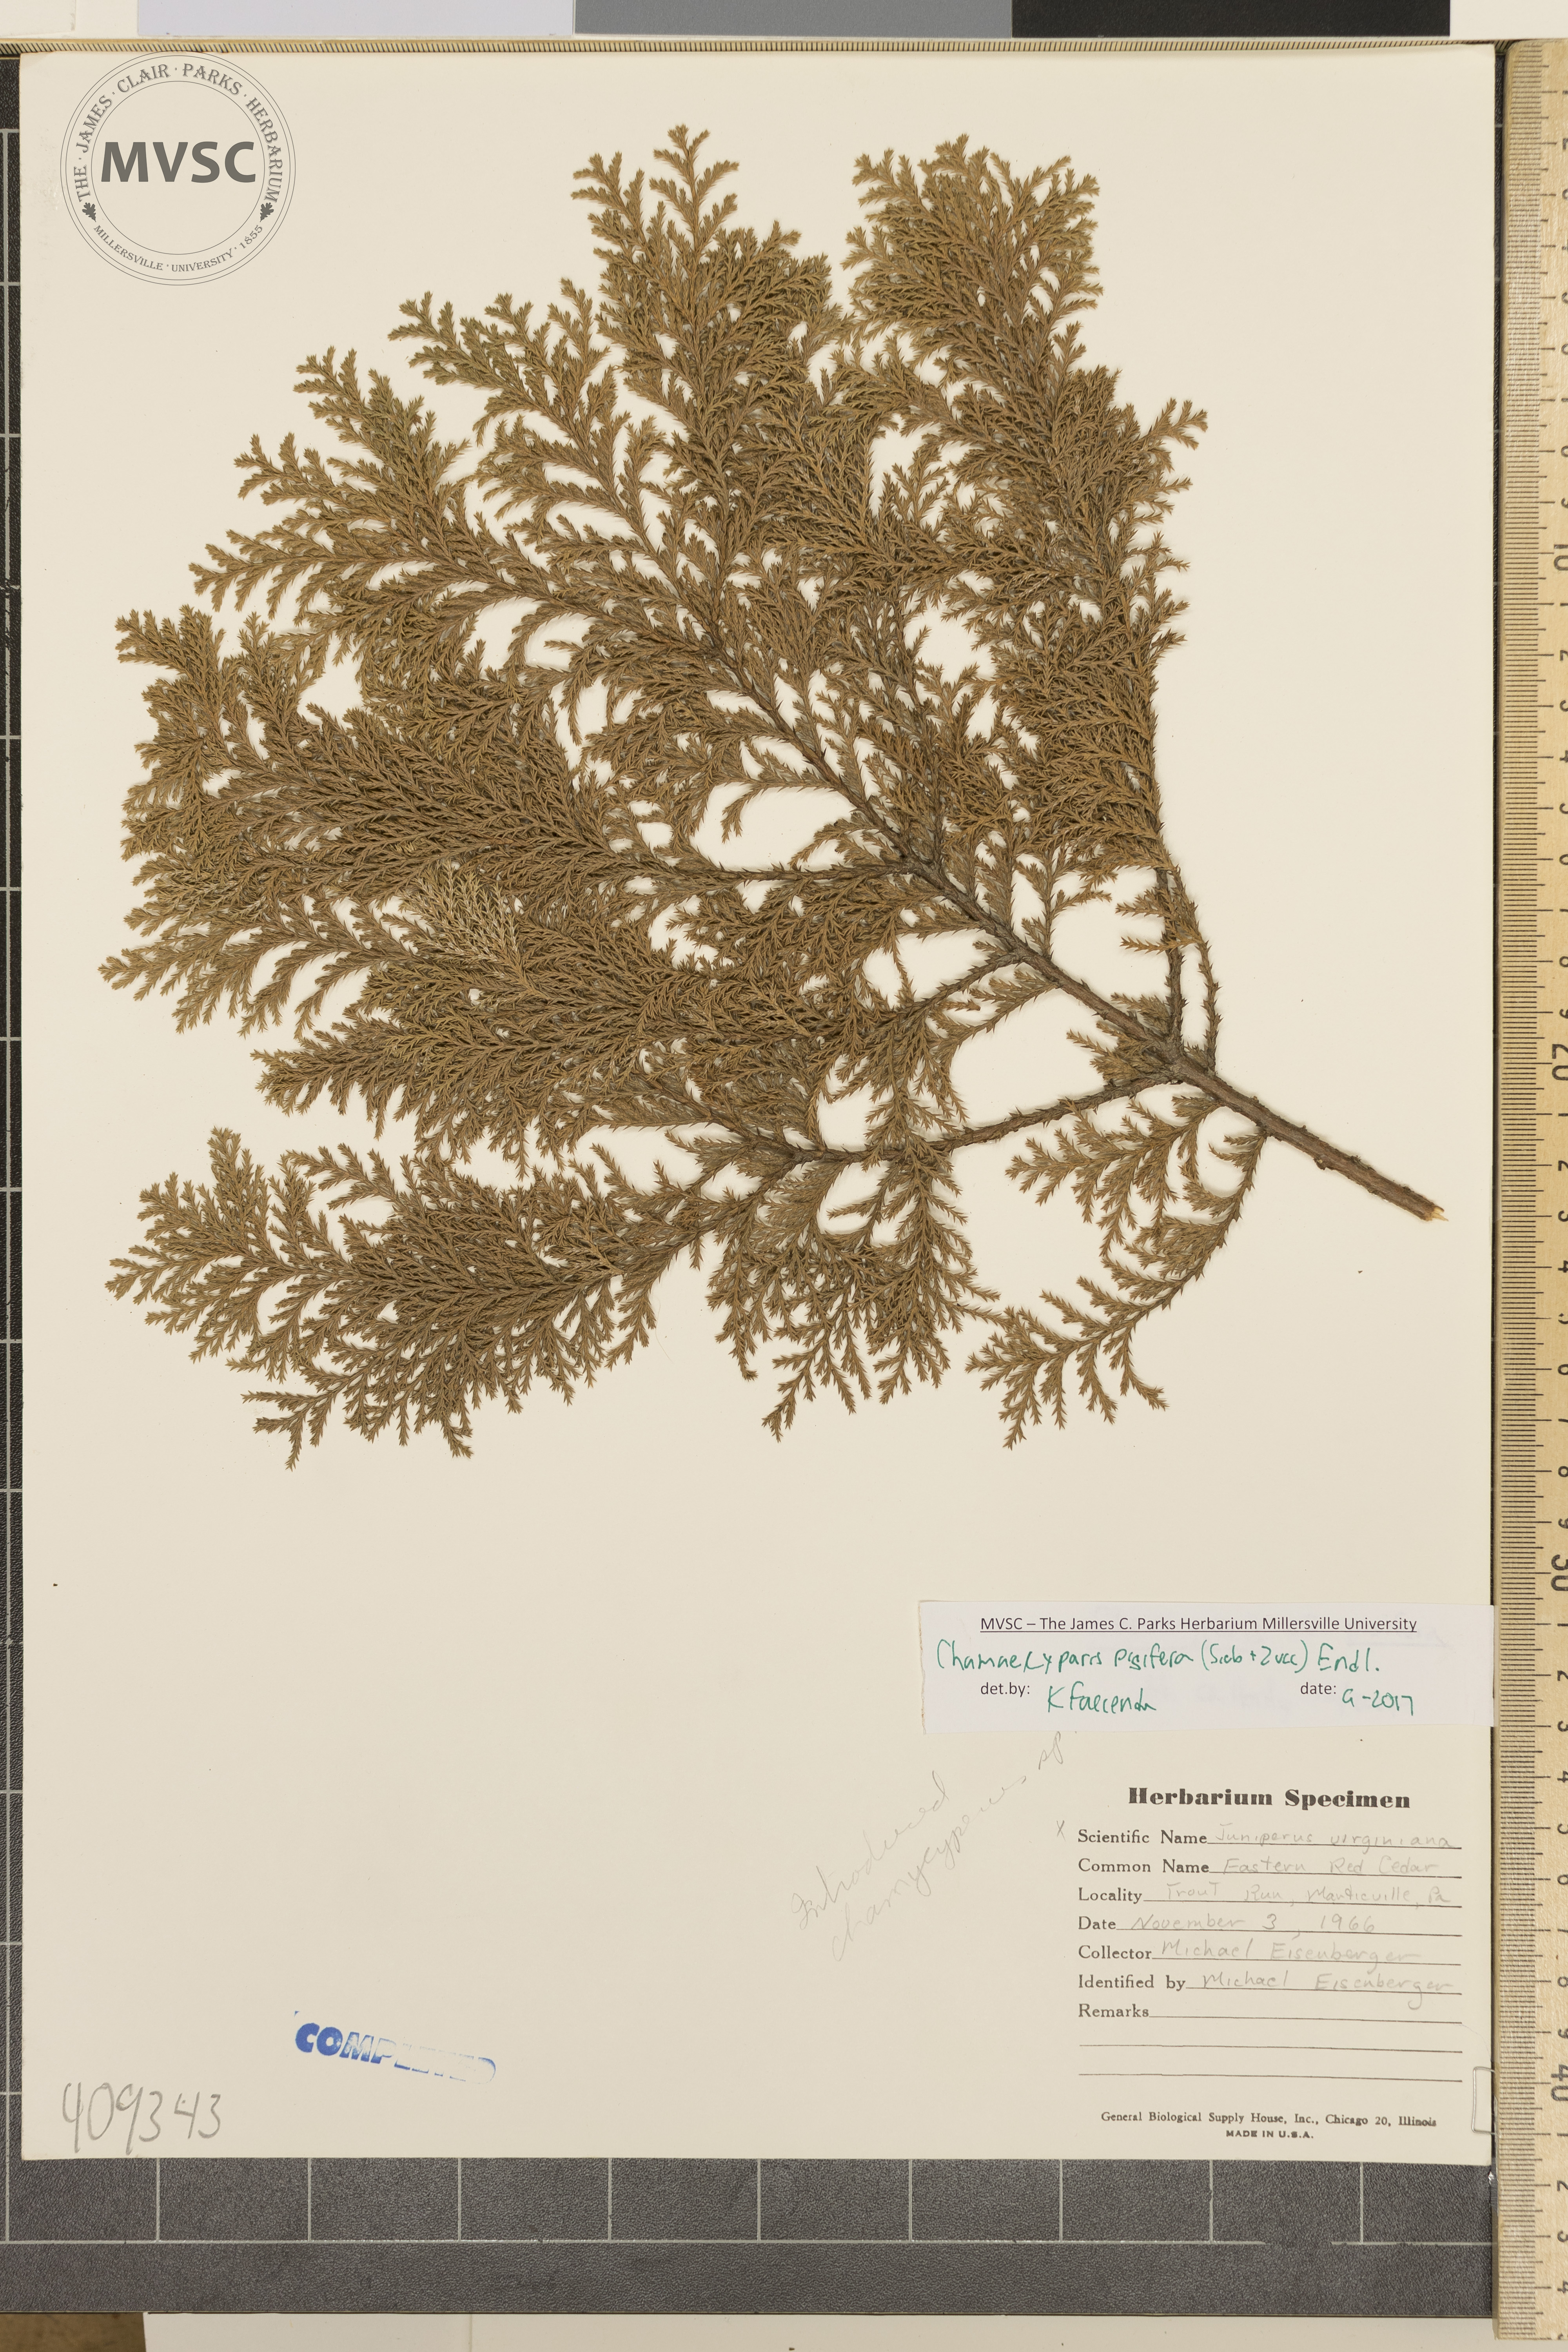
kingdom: Plantae
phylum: Tracheophyta
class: Pinopsida
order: Pinales
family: Cupressaceae
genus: Chamaecyparis
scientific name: Chamaecyparis pisifera
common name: Sawara cypress
